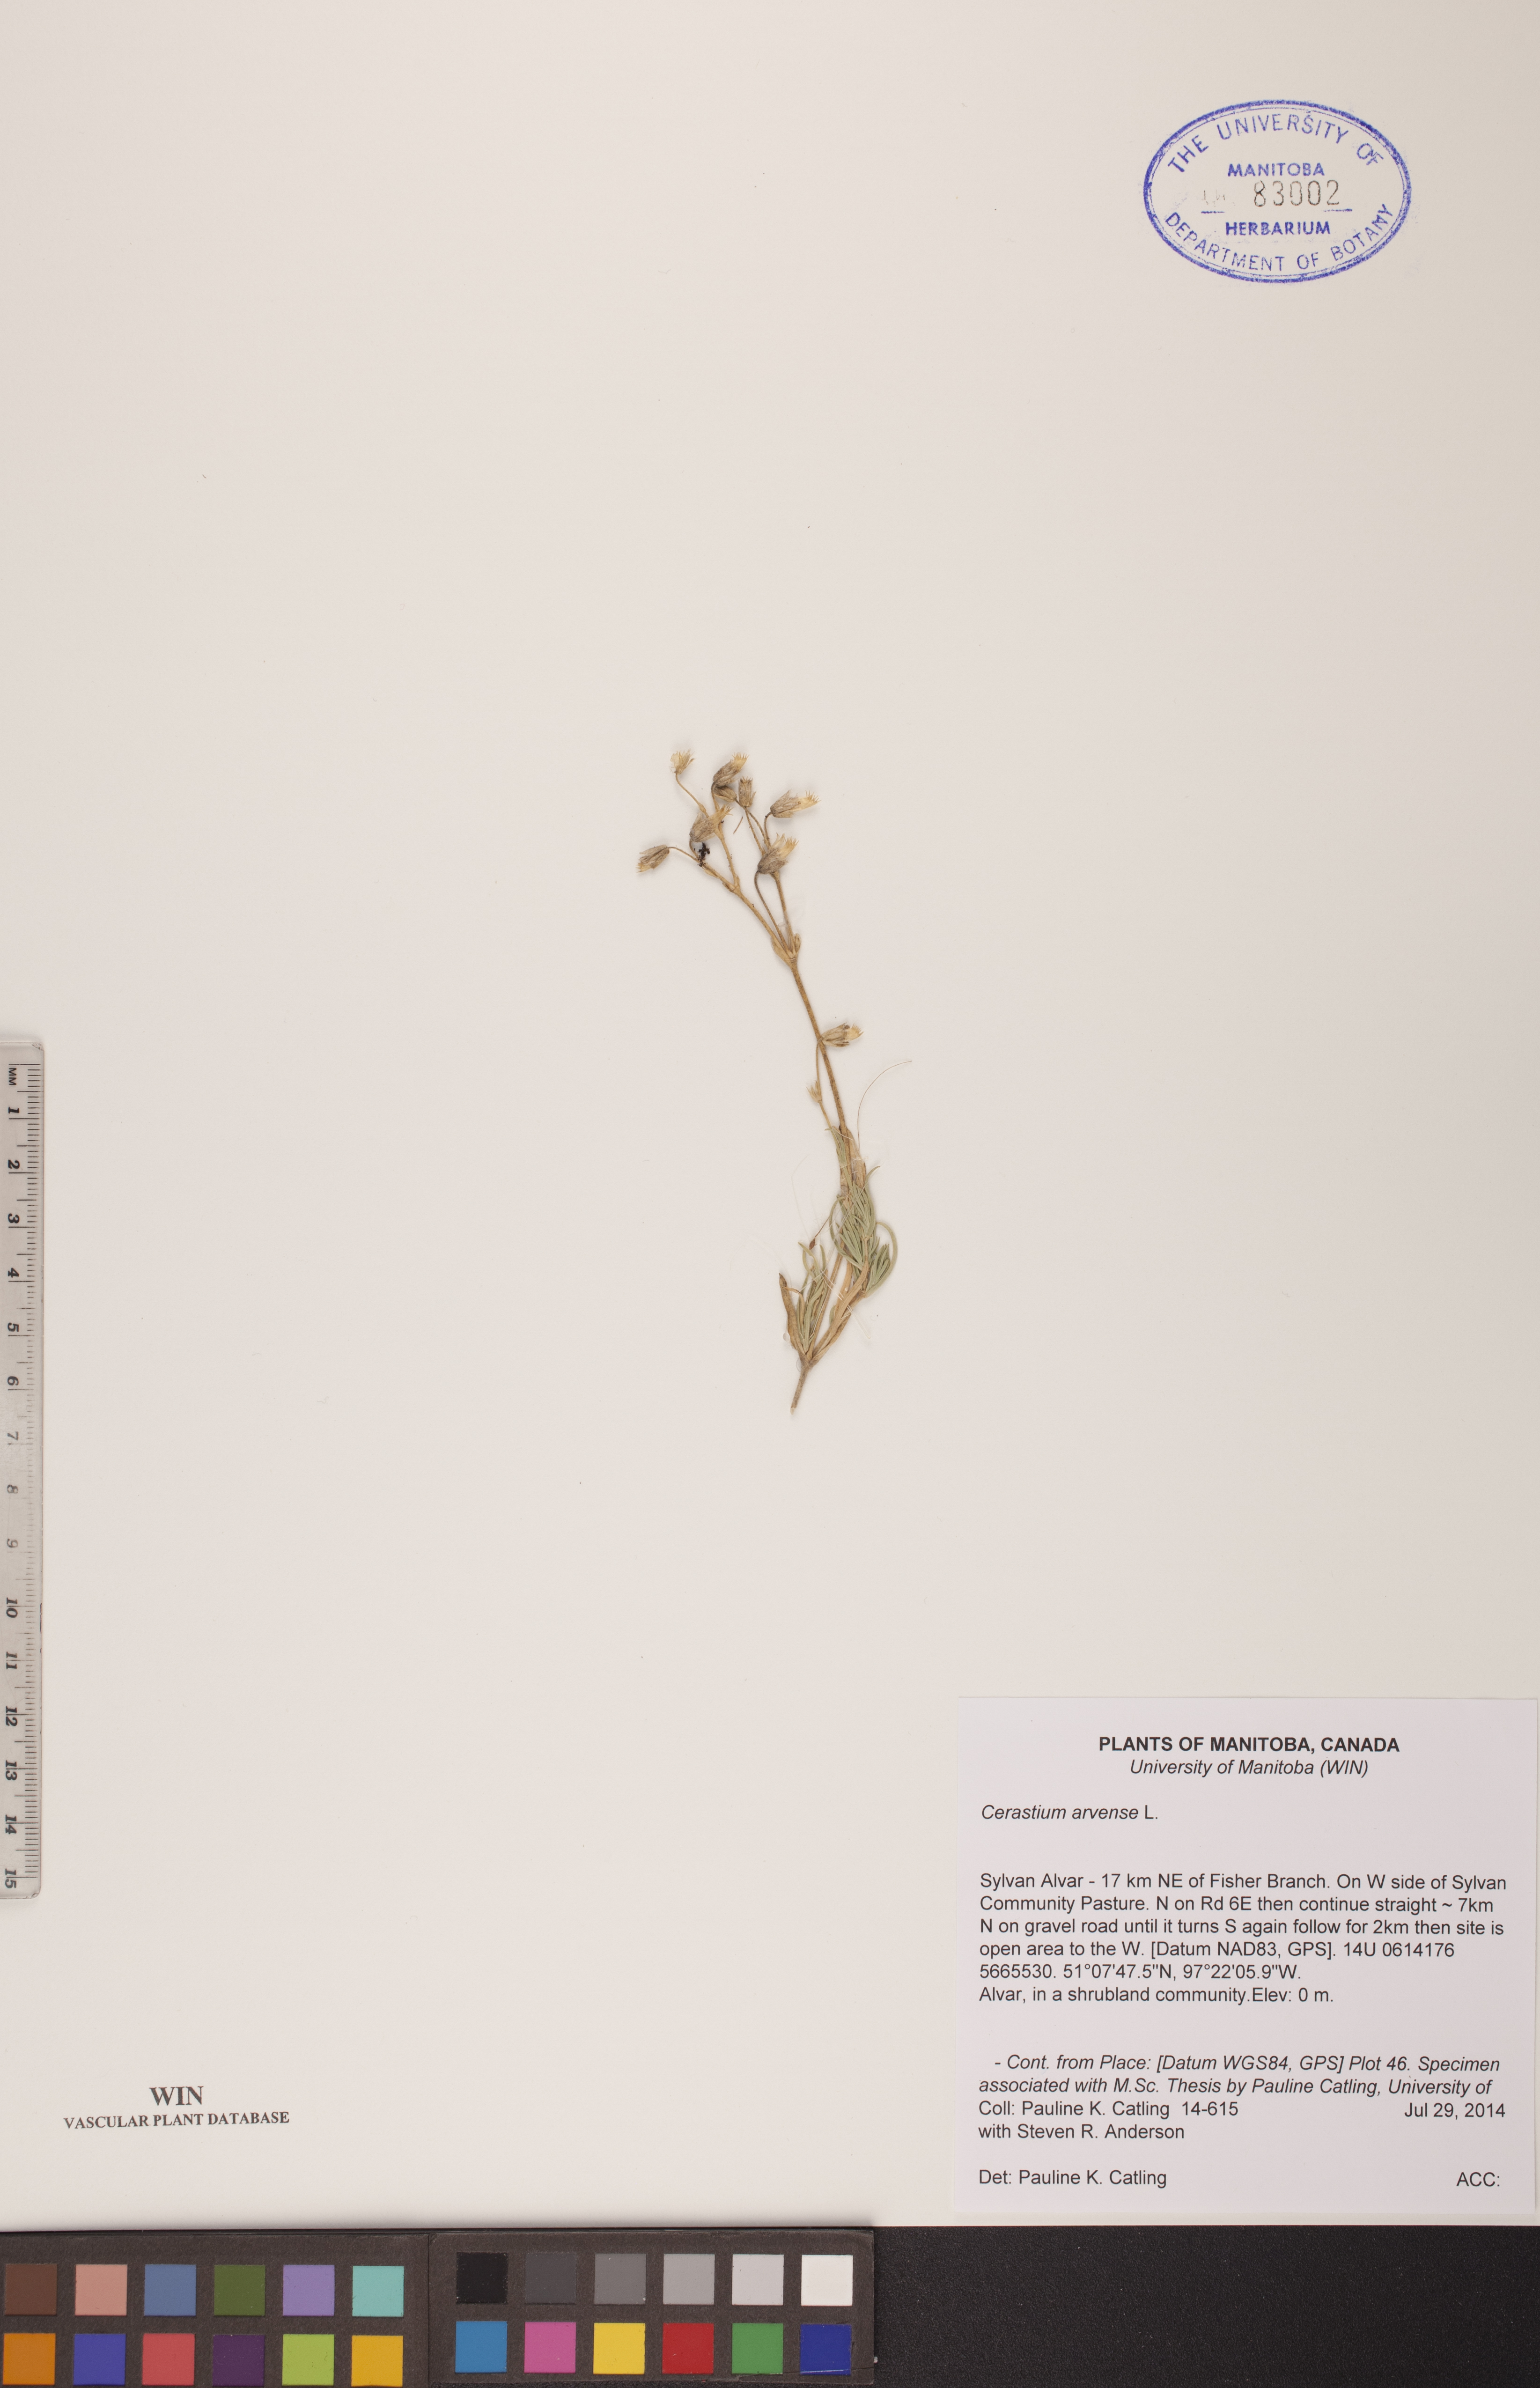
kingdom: Plantae
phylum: Tracheophyta
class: Magnoliopsida
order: Caryophyllales
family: Caryophyllaceae
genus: Cerastium
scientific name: Cerastium arvense
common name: Field mouse-ear
